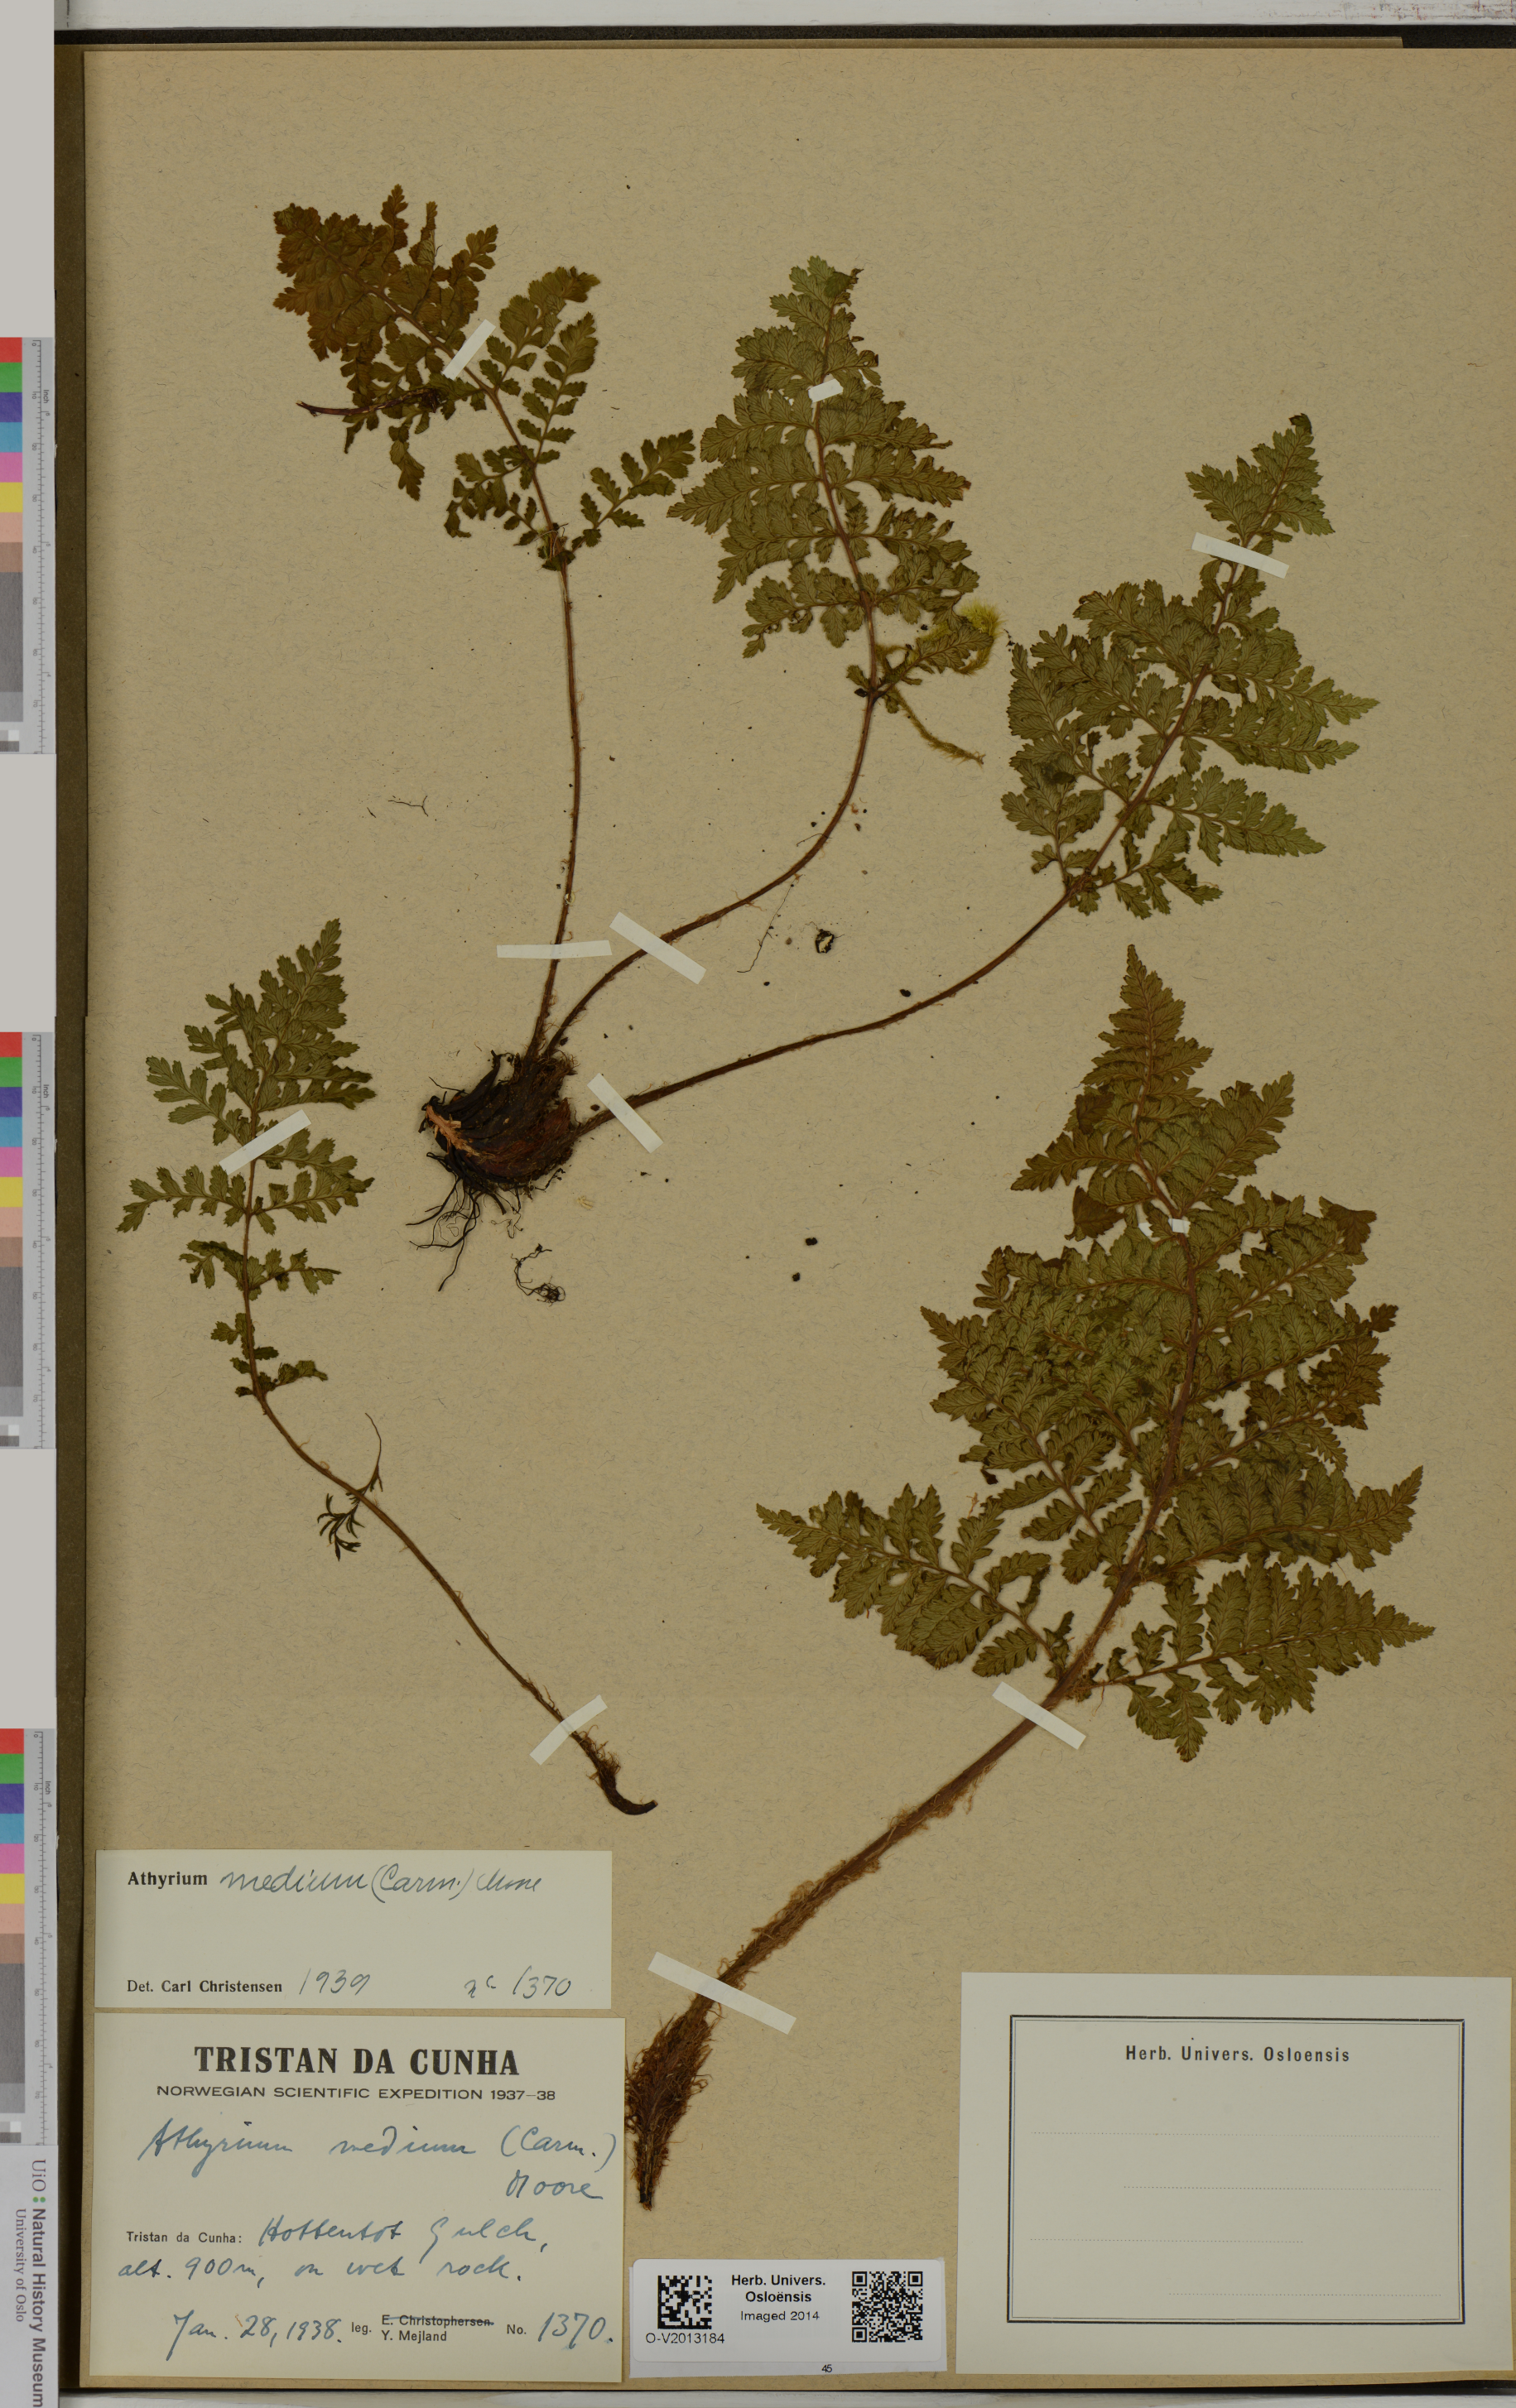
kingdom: Plantae
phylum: Tracheophyta
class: Polypodiopsida
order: Polypodiales
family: Athyriaceae
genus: Athyrium
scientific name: Athyrium medium
